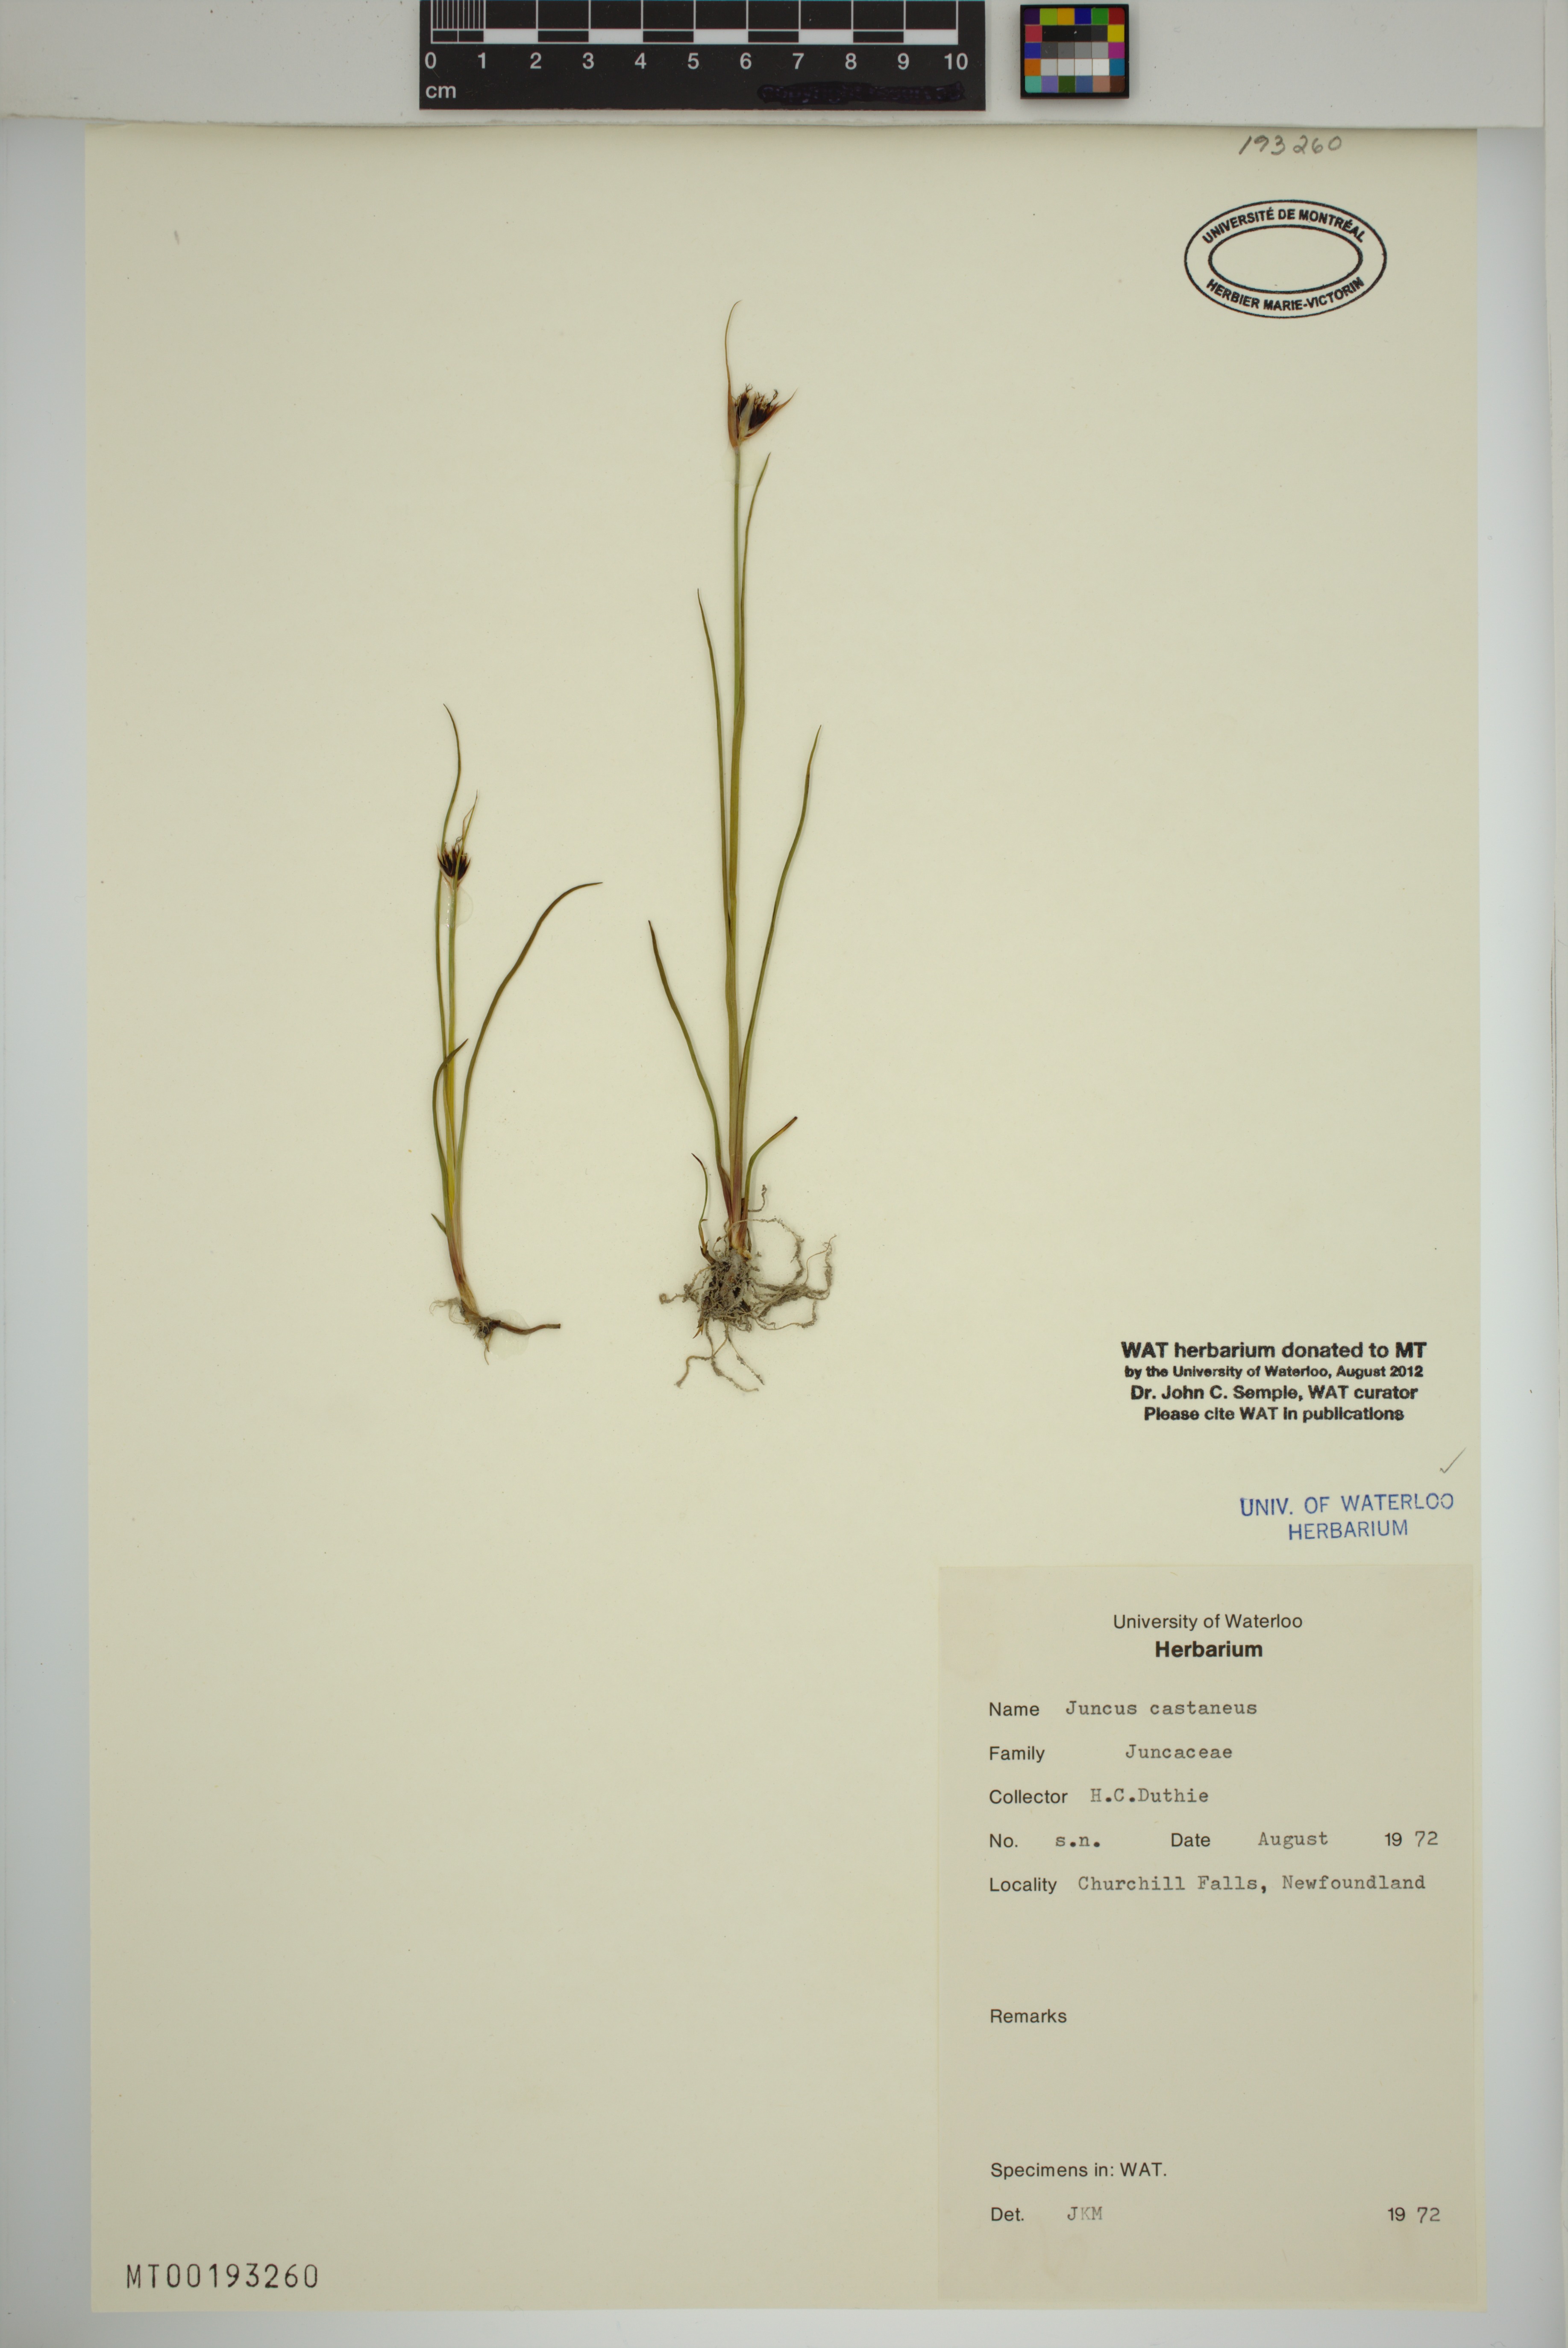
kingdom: Plantae
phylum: Tracheophyta
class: Liliopsida
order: Poales
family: Juncaceae
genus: Juncus
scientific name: Juncus castaneus
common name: Chestnut rush
